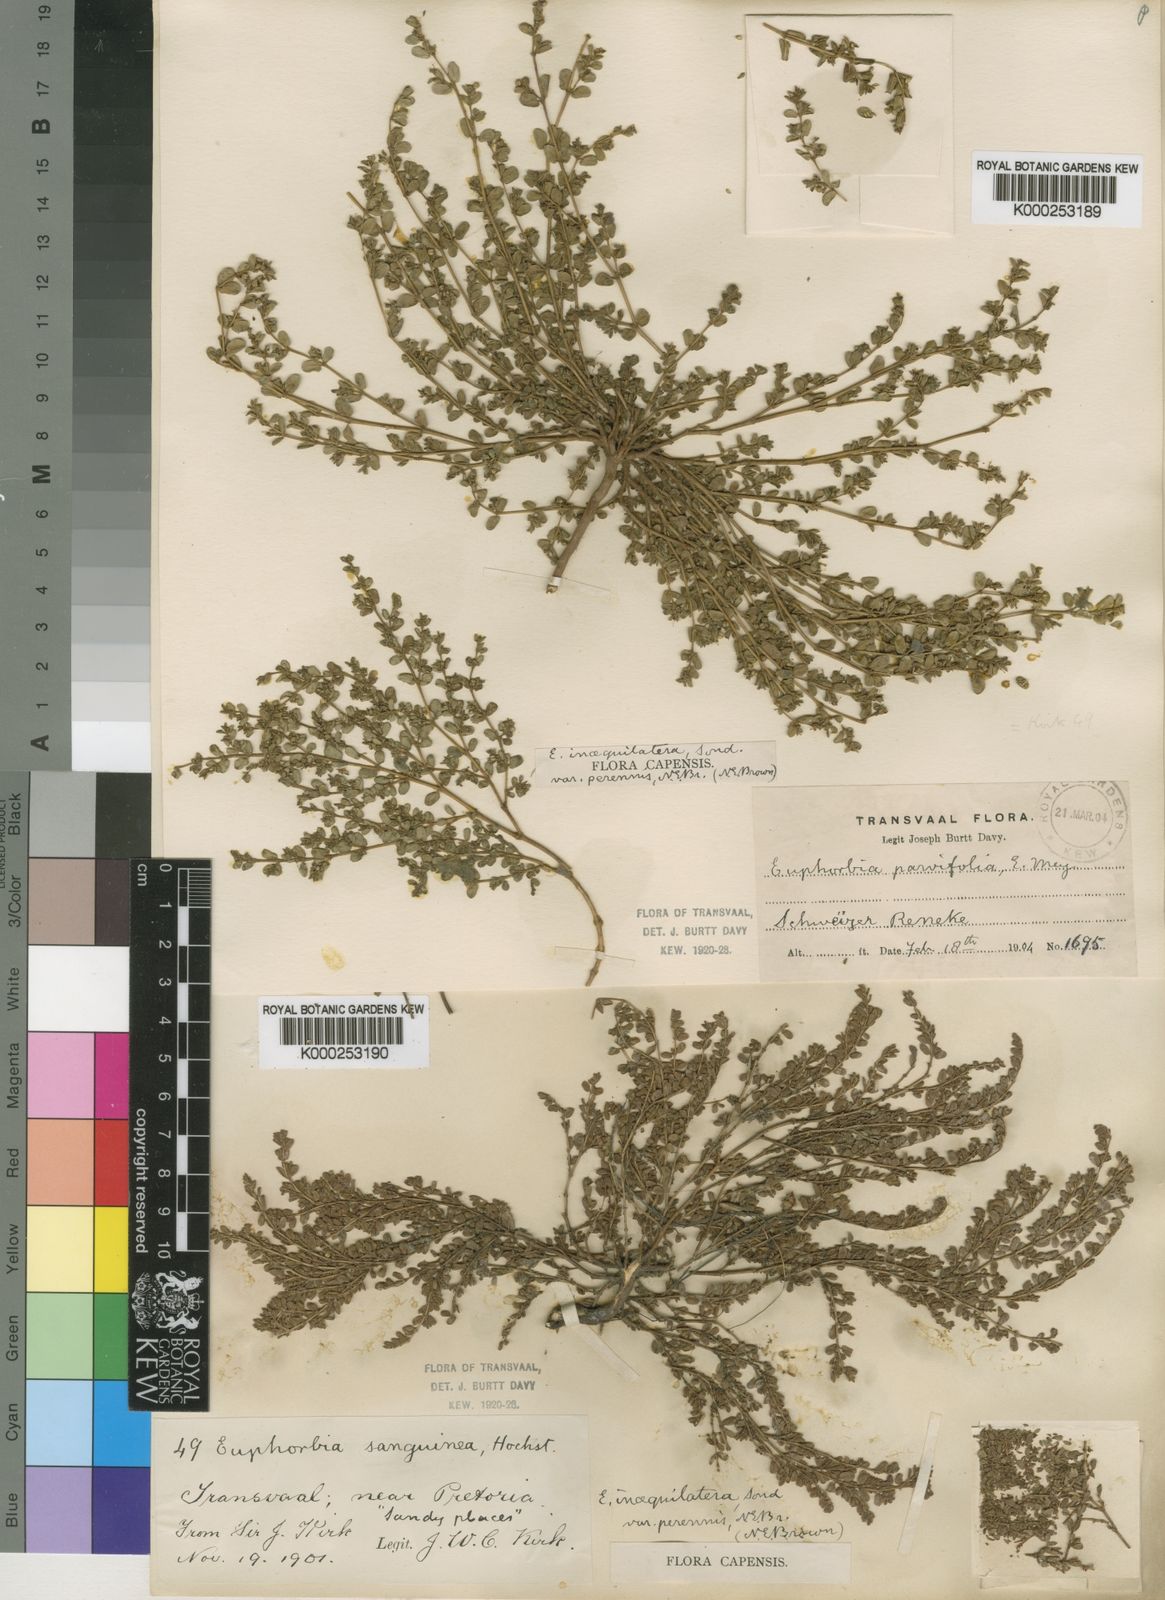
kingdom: Plantae
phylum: Tracheophyta
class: Magnoliopsida
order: Malpighiales
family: Euphorbiaceae
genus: Euphorbia
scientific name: Euphorbia inaequilatera
